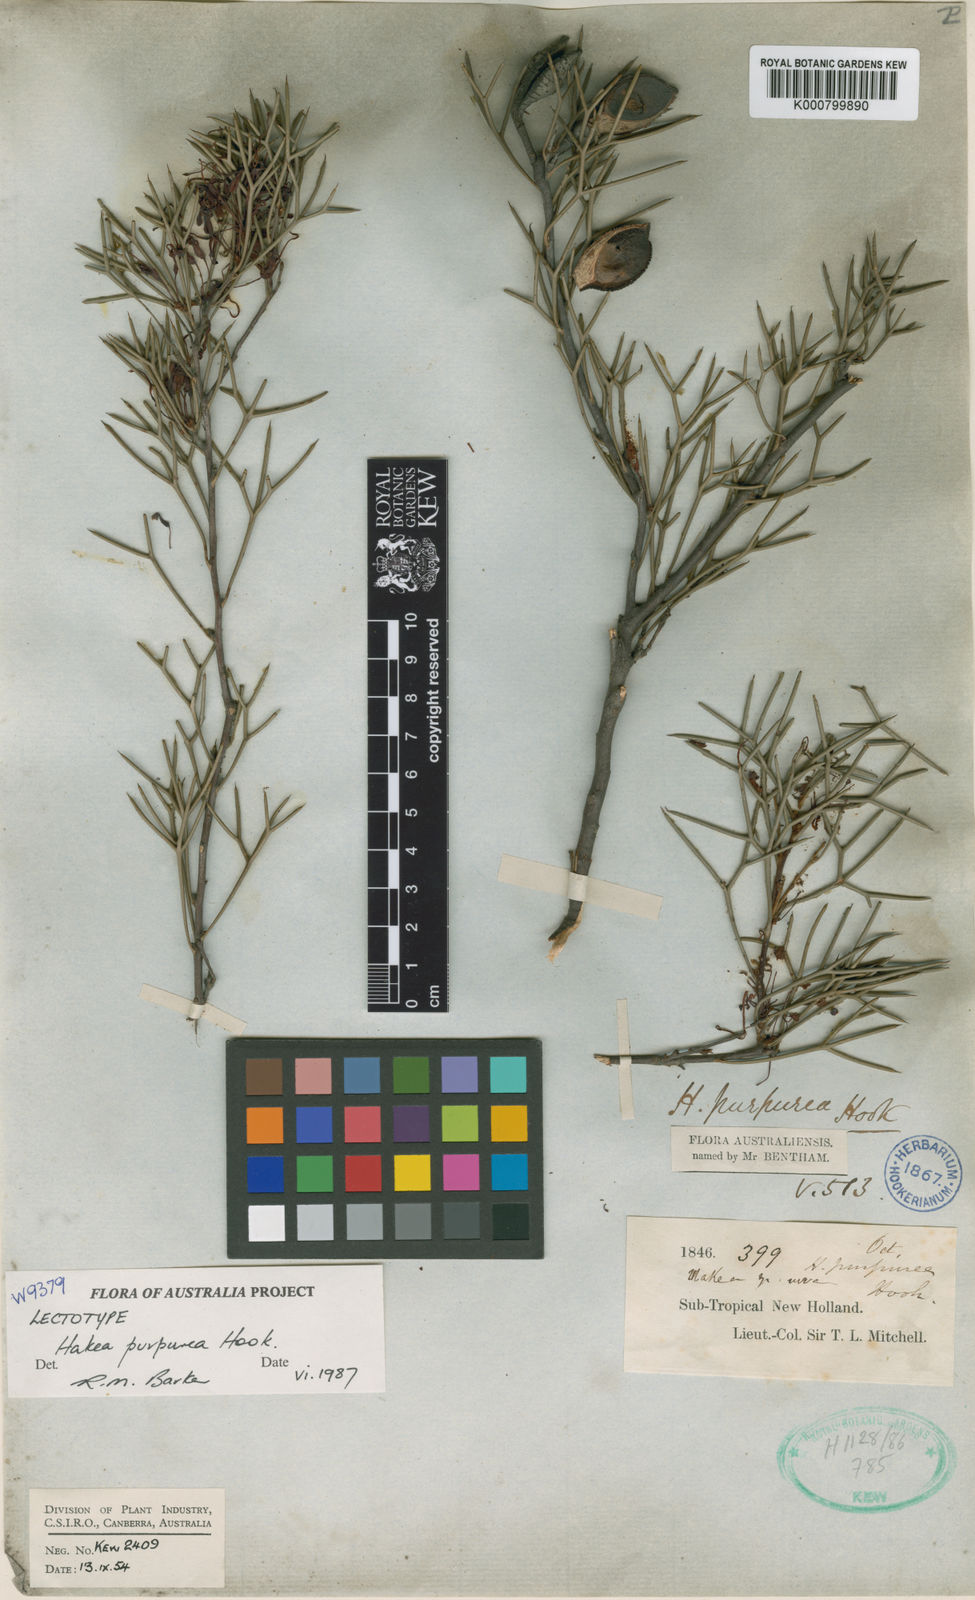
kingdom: Plantae
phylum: Tracheophyta
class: Magnoliopsida
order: Proteales
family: Proteaceae
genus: Hakea
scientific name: Hakea purpurea
